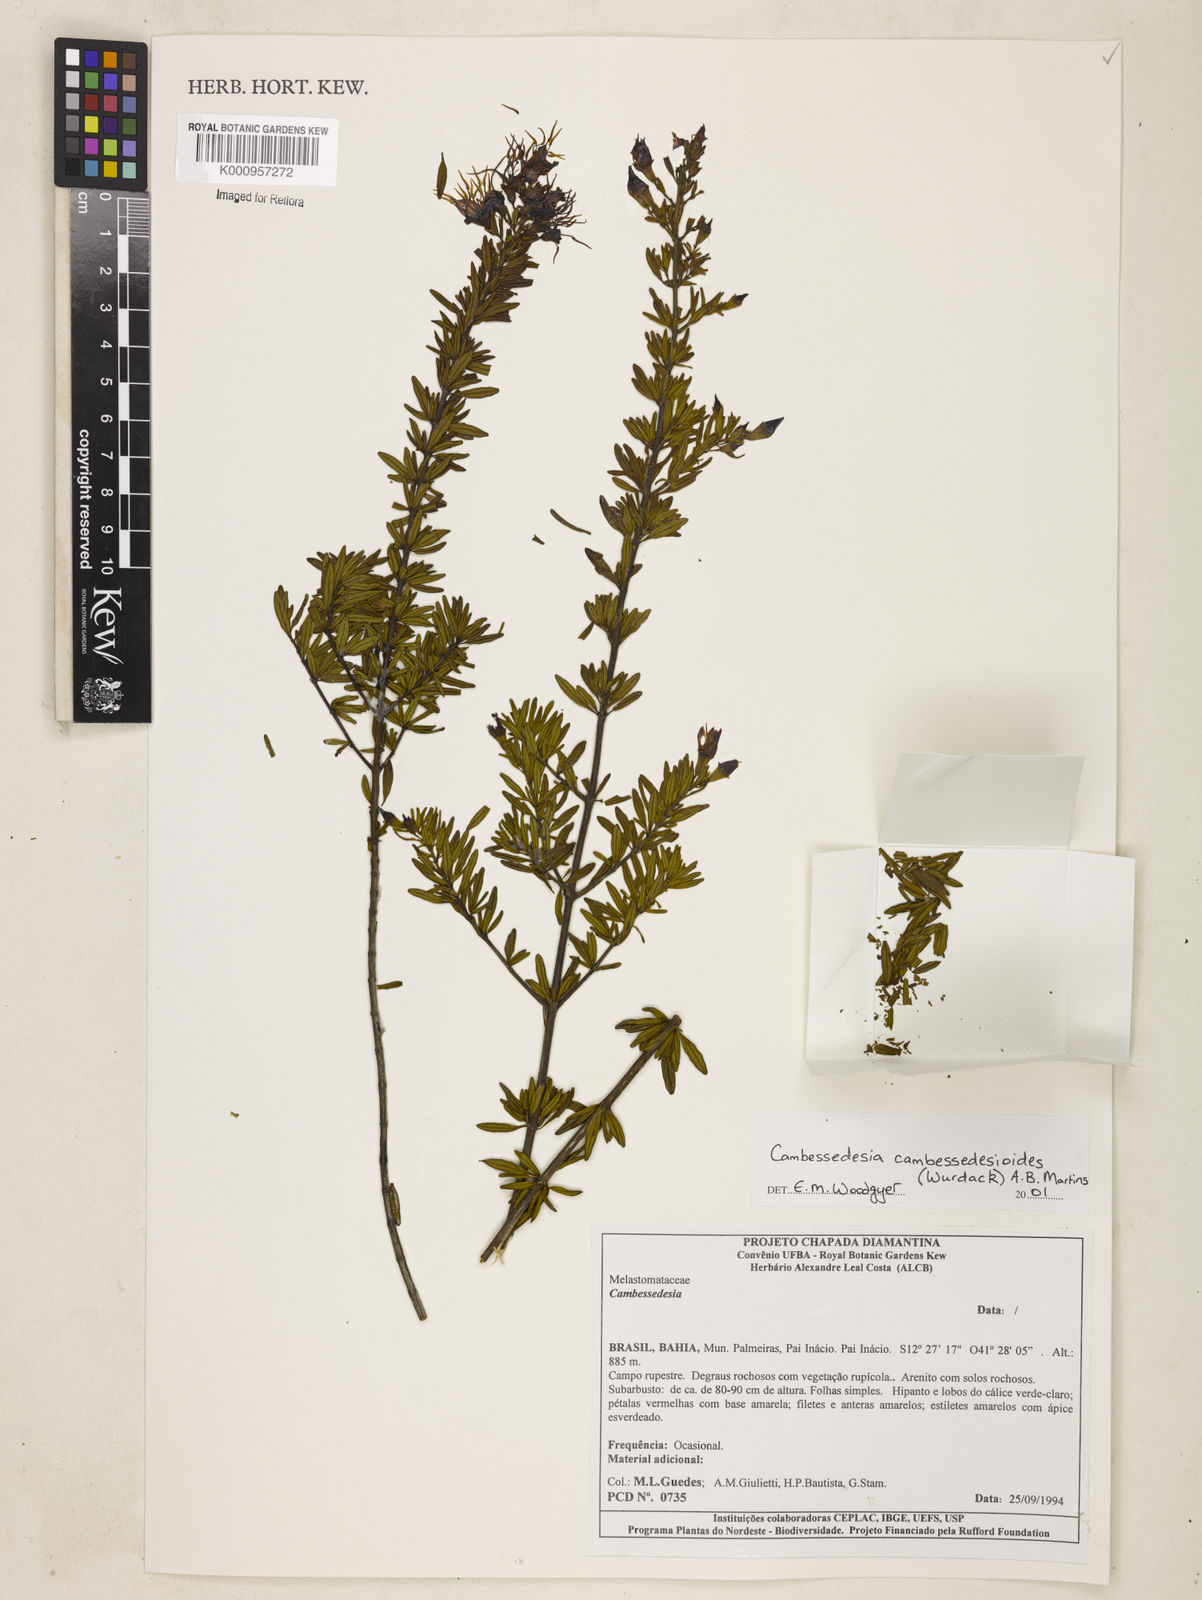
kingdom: Plantae
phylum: Tracheophyta
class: Magnoliopsida
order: Myrtales
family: Melastomataceae
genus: Cambessedesia
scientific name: Cambessedesia cambessedesioides
